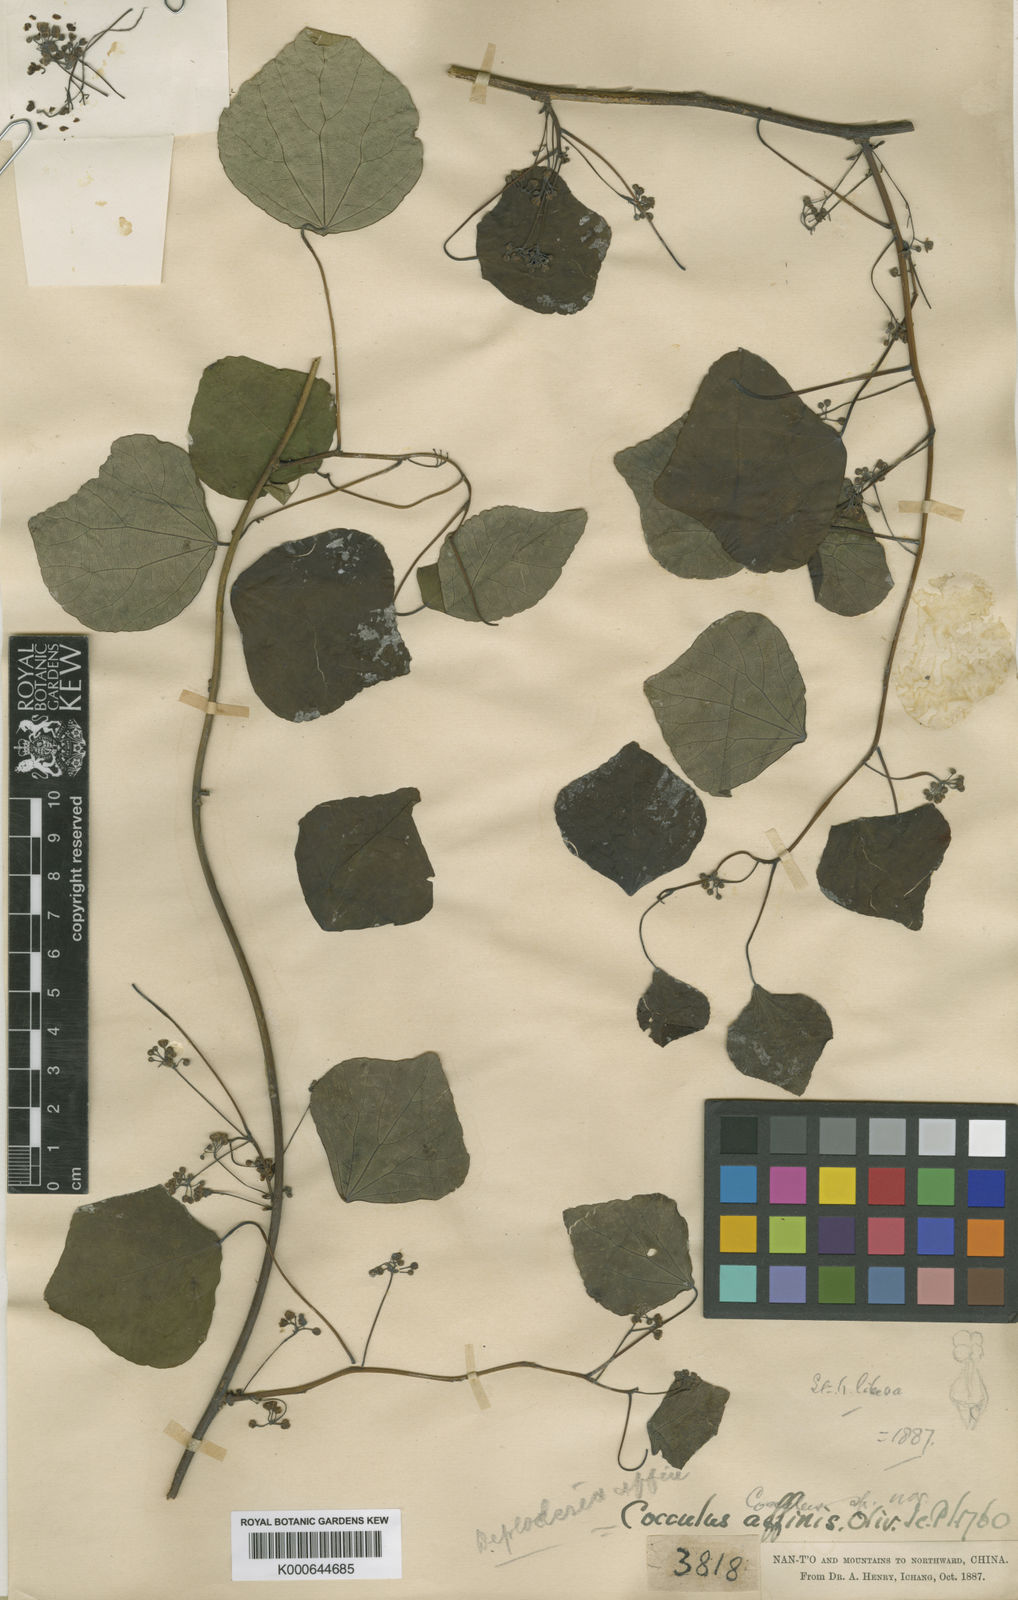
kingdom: Plantae
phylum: Tracheophyta
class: Magnoliopsida
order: Ranunculales
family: Menispermaceae
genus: Diploclisia
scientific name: Diploclisia affinis
